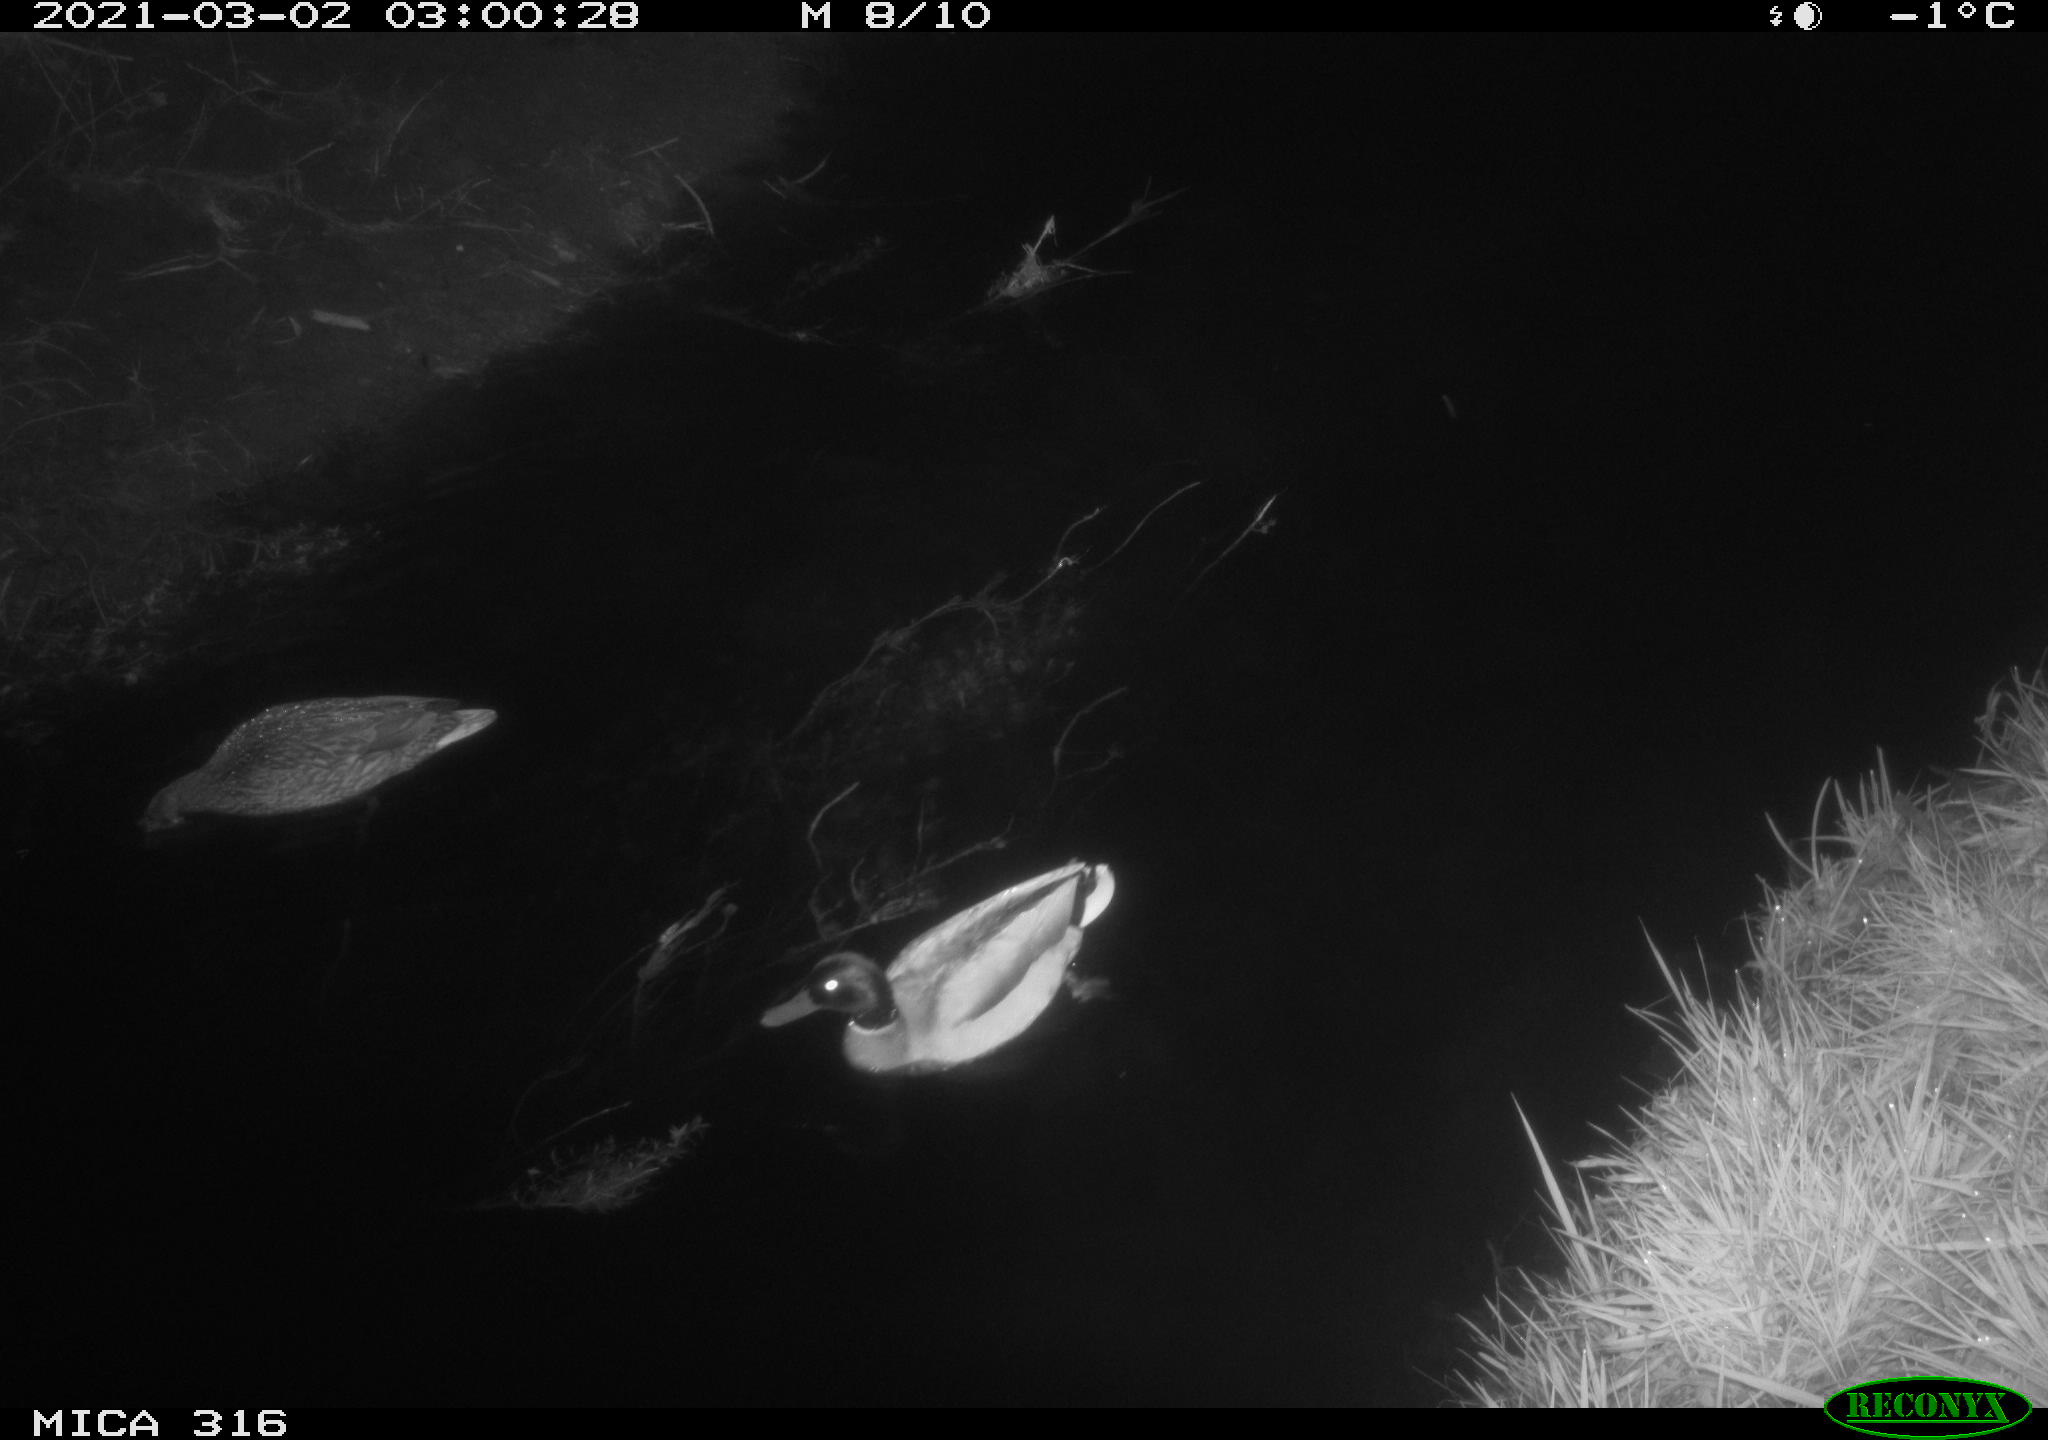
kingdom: Animalia
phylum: Chordata
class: Aves
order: Anseriformes
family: Anatidae
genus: Anas
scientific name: Anas platyrhynchos
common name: Mallard
